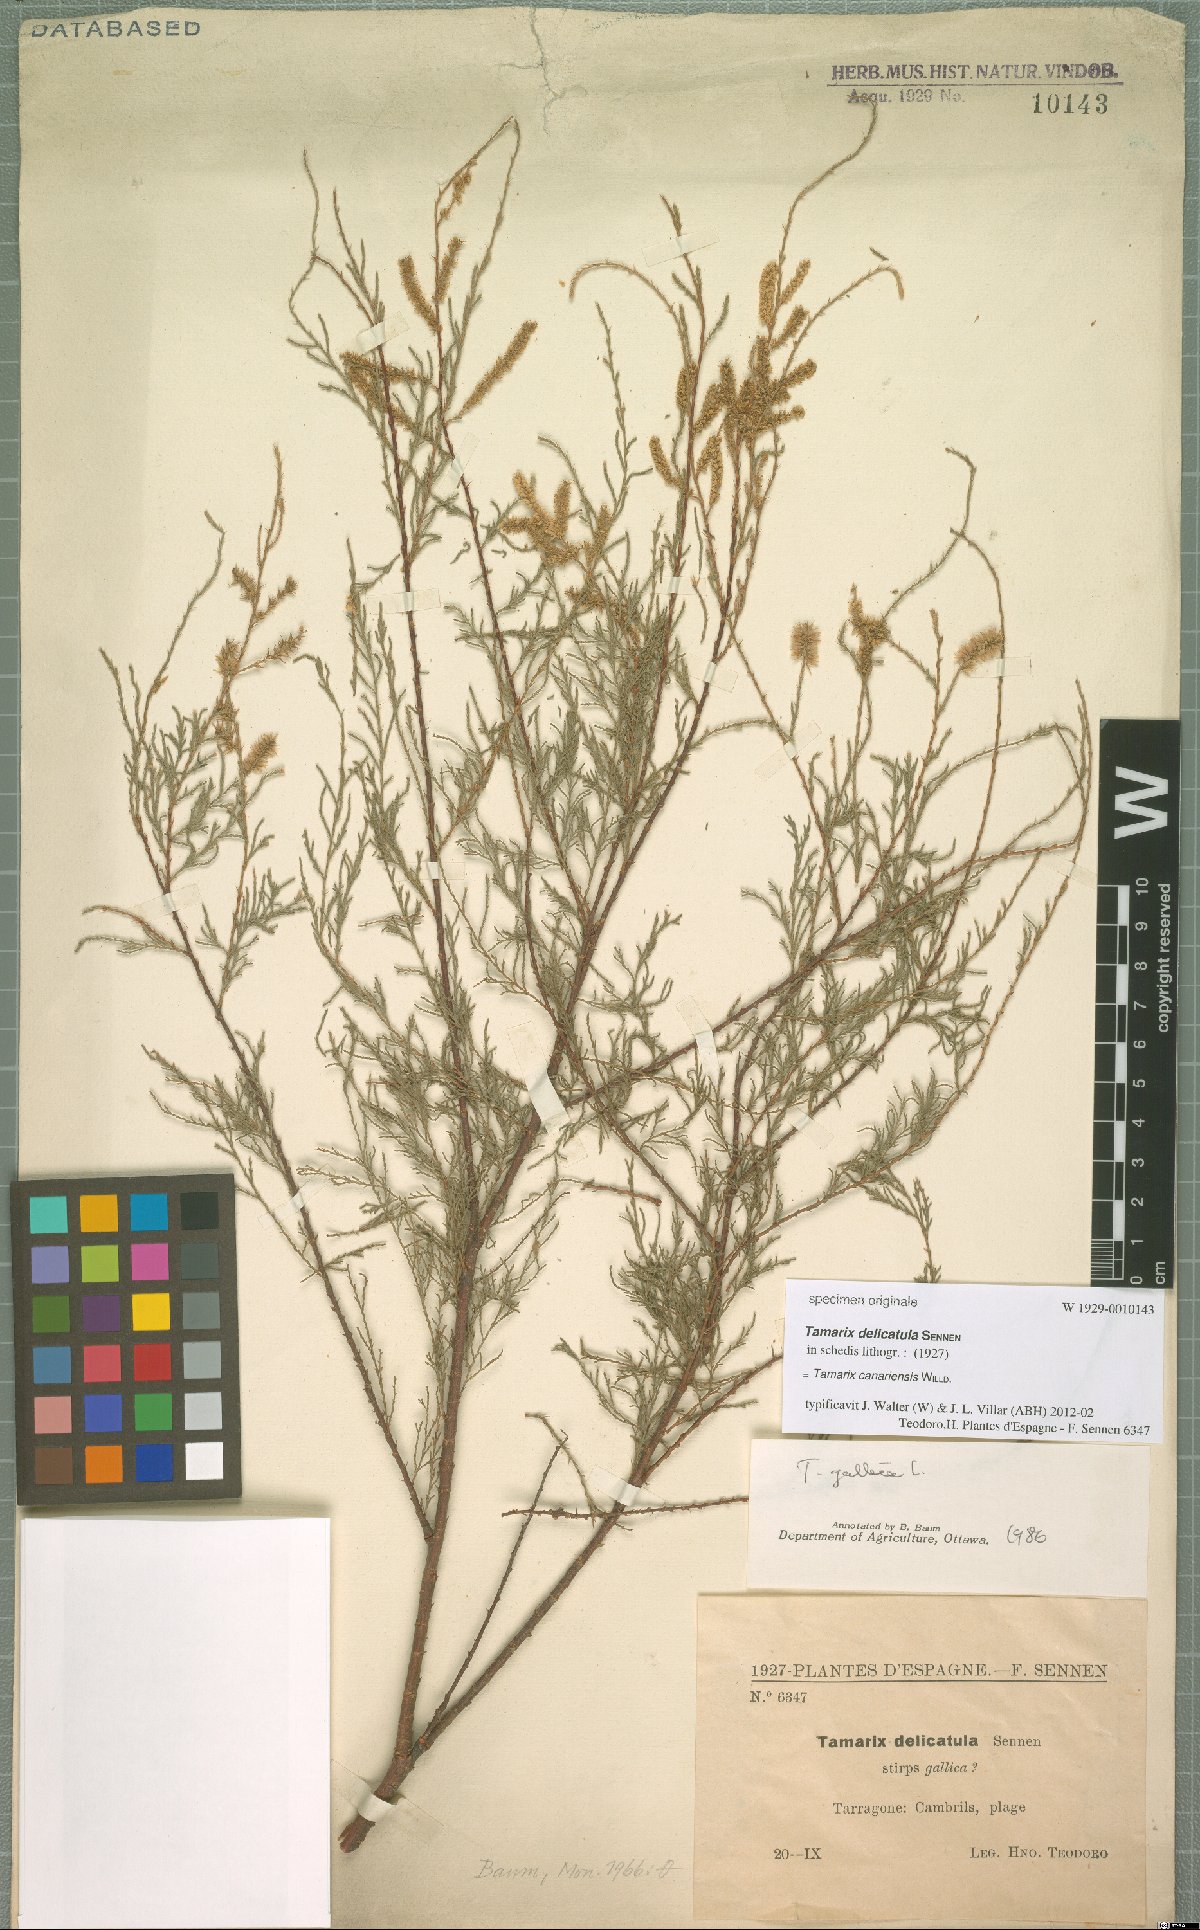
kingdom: Plantae
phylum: Tracheophyta
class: Magnoliopsida
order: Caryophyllales
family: Tamaricaceae
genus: Tamarix
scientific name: Tamarix canariensis
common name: Canary island tamarisk
